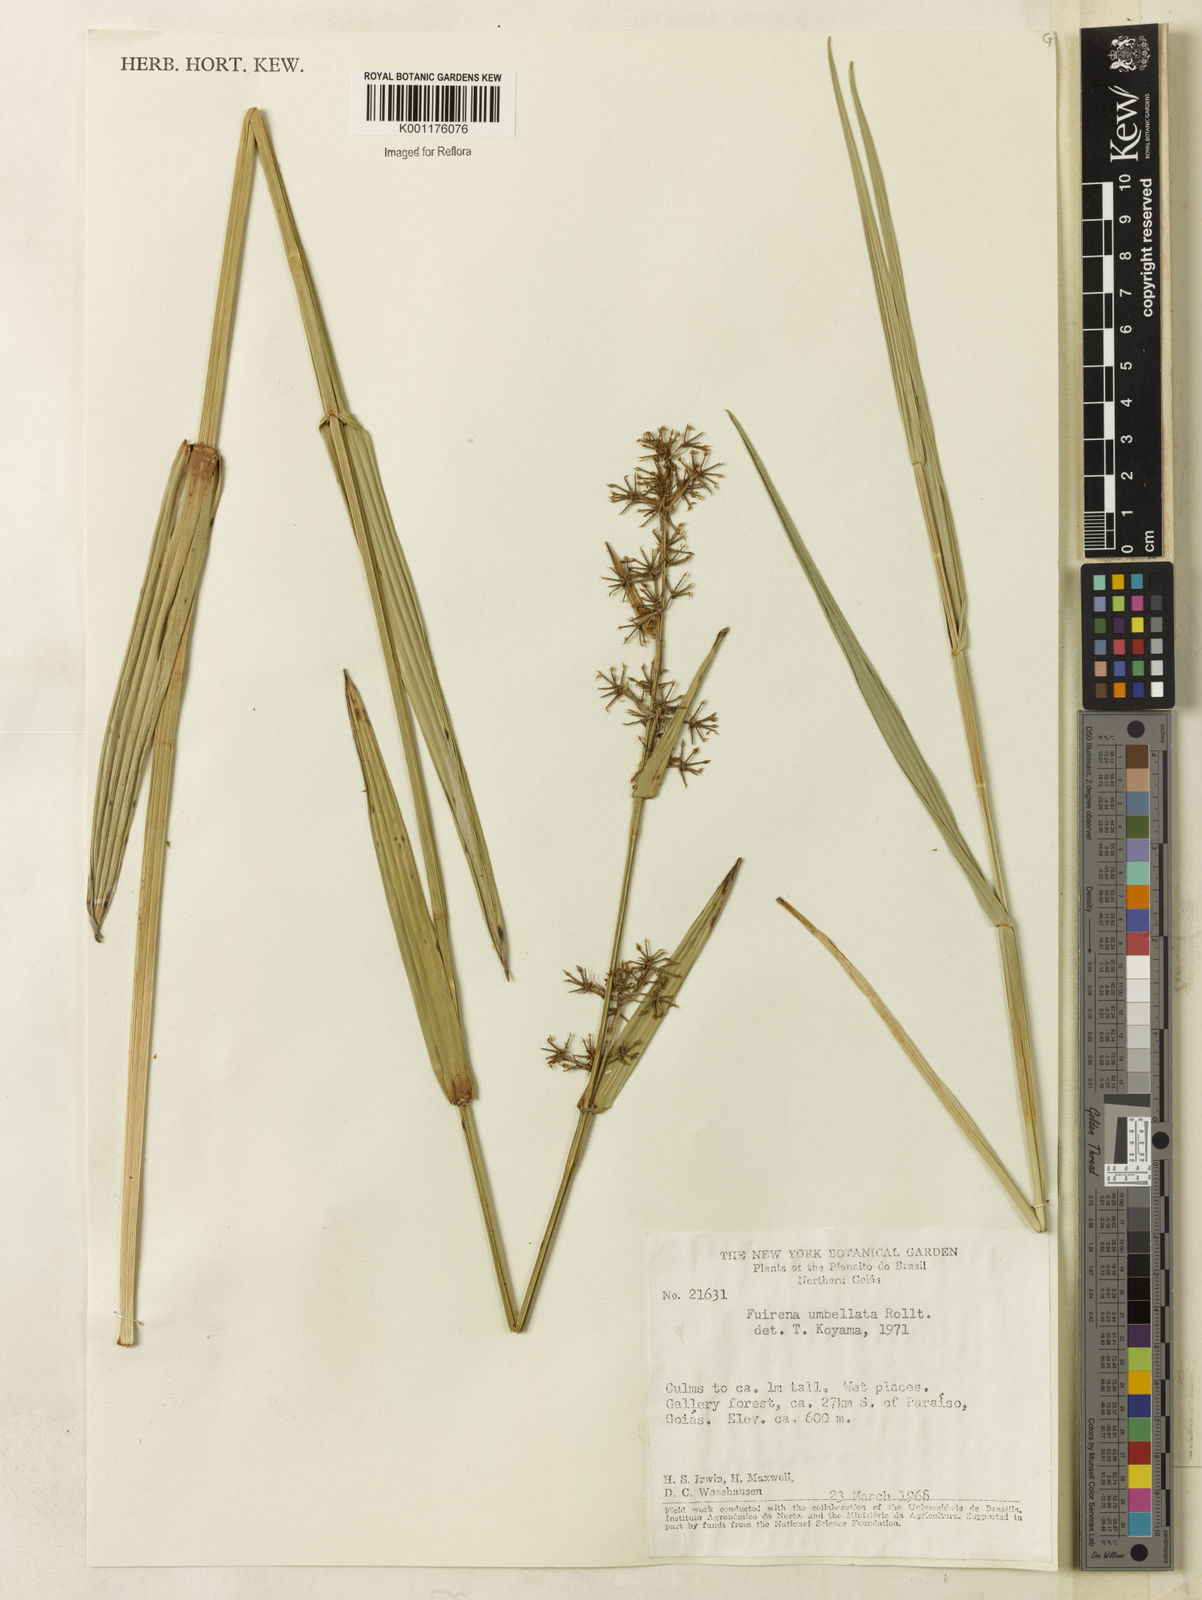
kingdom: Plantae
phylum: Tracheophyta
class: Liliopsida
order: Poales
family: Cyperaceae
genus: Fuirena
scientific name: Fuirena umbellata
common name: Yefen
